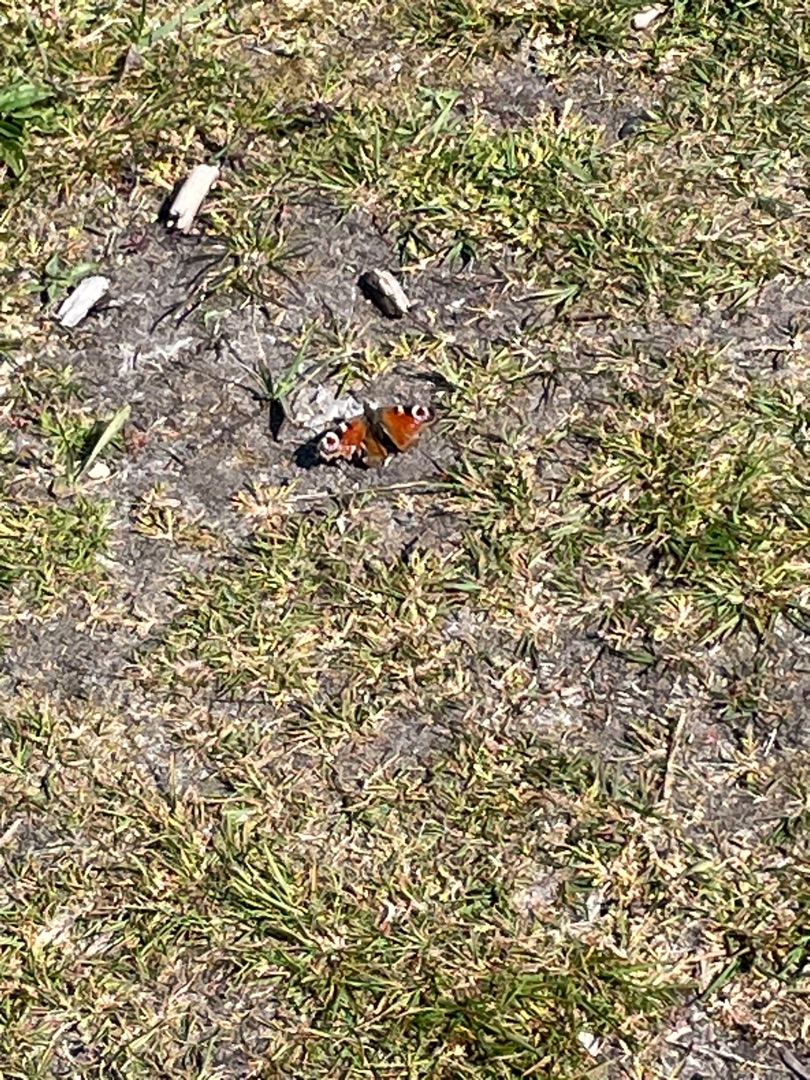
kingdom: Animalia
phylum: Arthropoda
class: Insecta
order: Lepidoptera
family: Nymphalidae
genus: Aglais
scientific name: Aglais io
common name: Dagpåfugleøje
